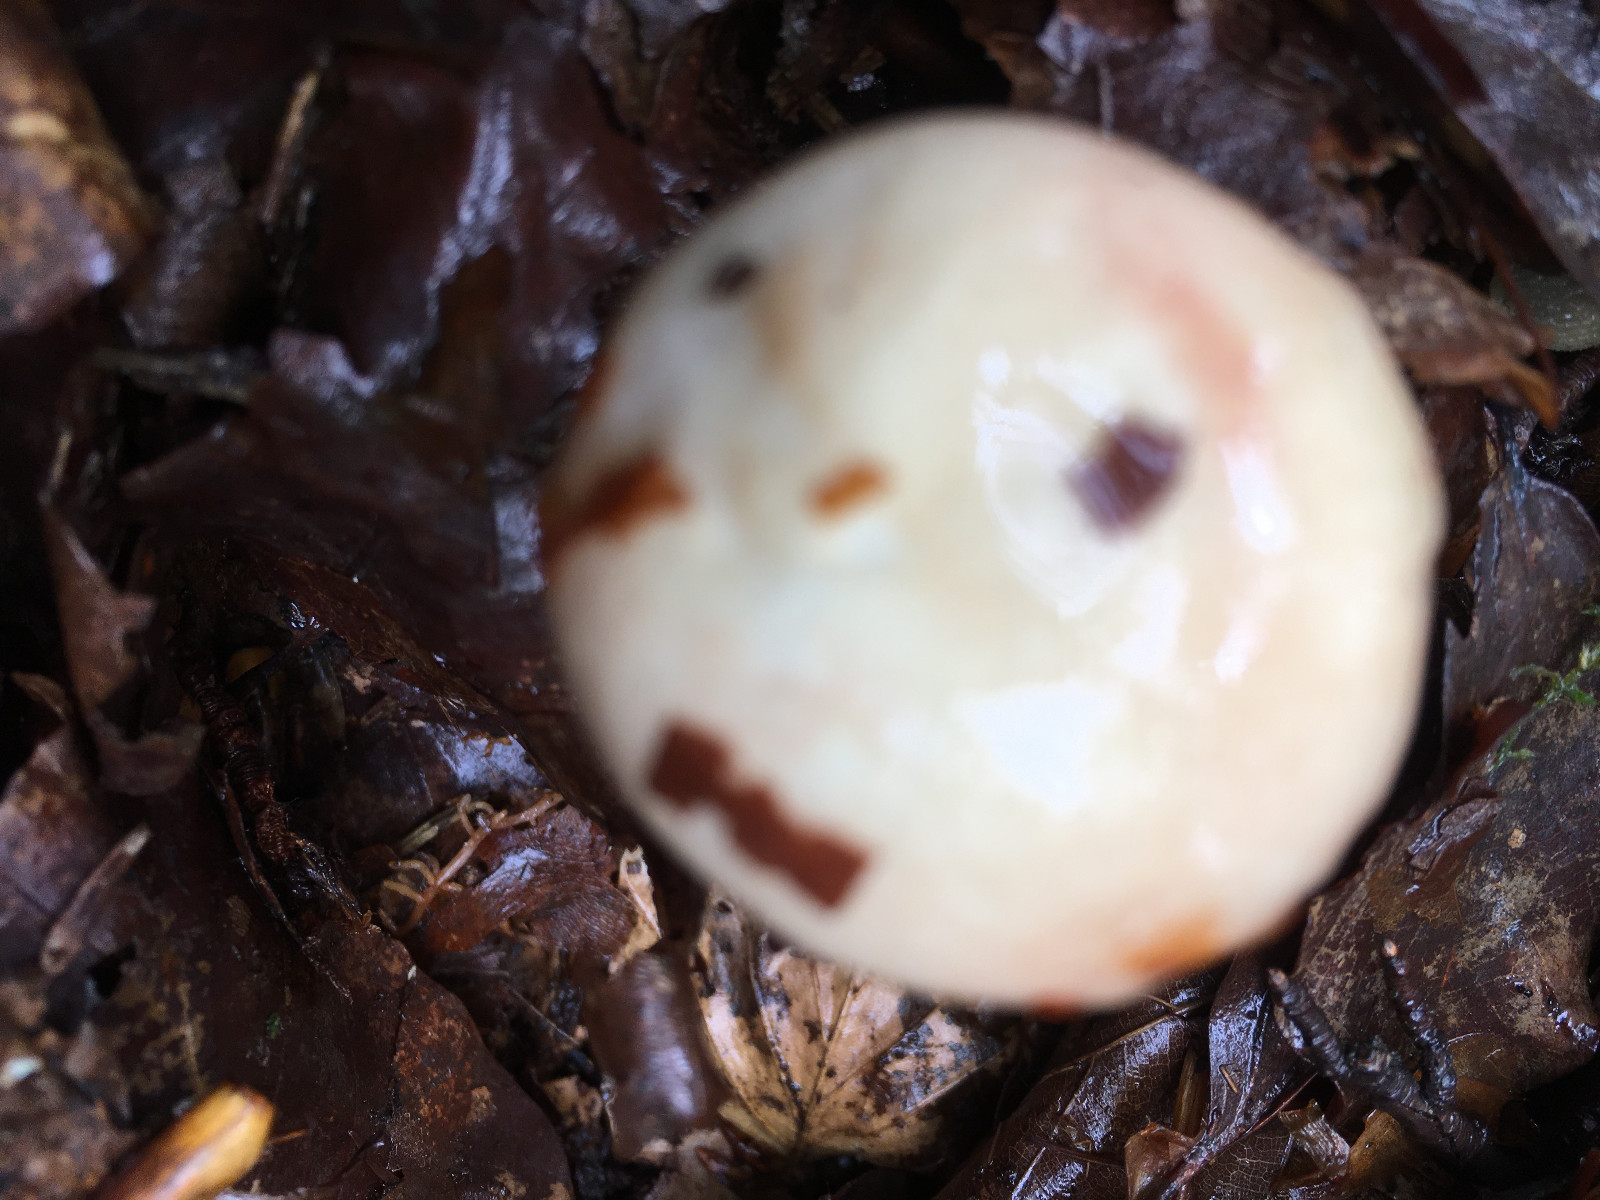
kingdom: Fungi
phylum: Basidiomycota
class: Agaricomycetes
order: Russulales
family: Russulaceae
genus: Russula
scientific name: Russula
